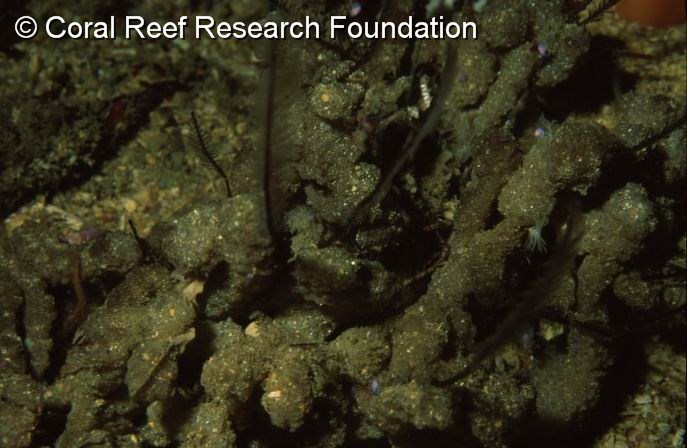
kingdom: Animalia
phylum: Chordata
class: Ascidiacea
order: Aplousobranchia
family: Polycitoridae
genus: Polycitor
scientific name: Polycitor porrecta
